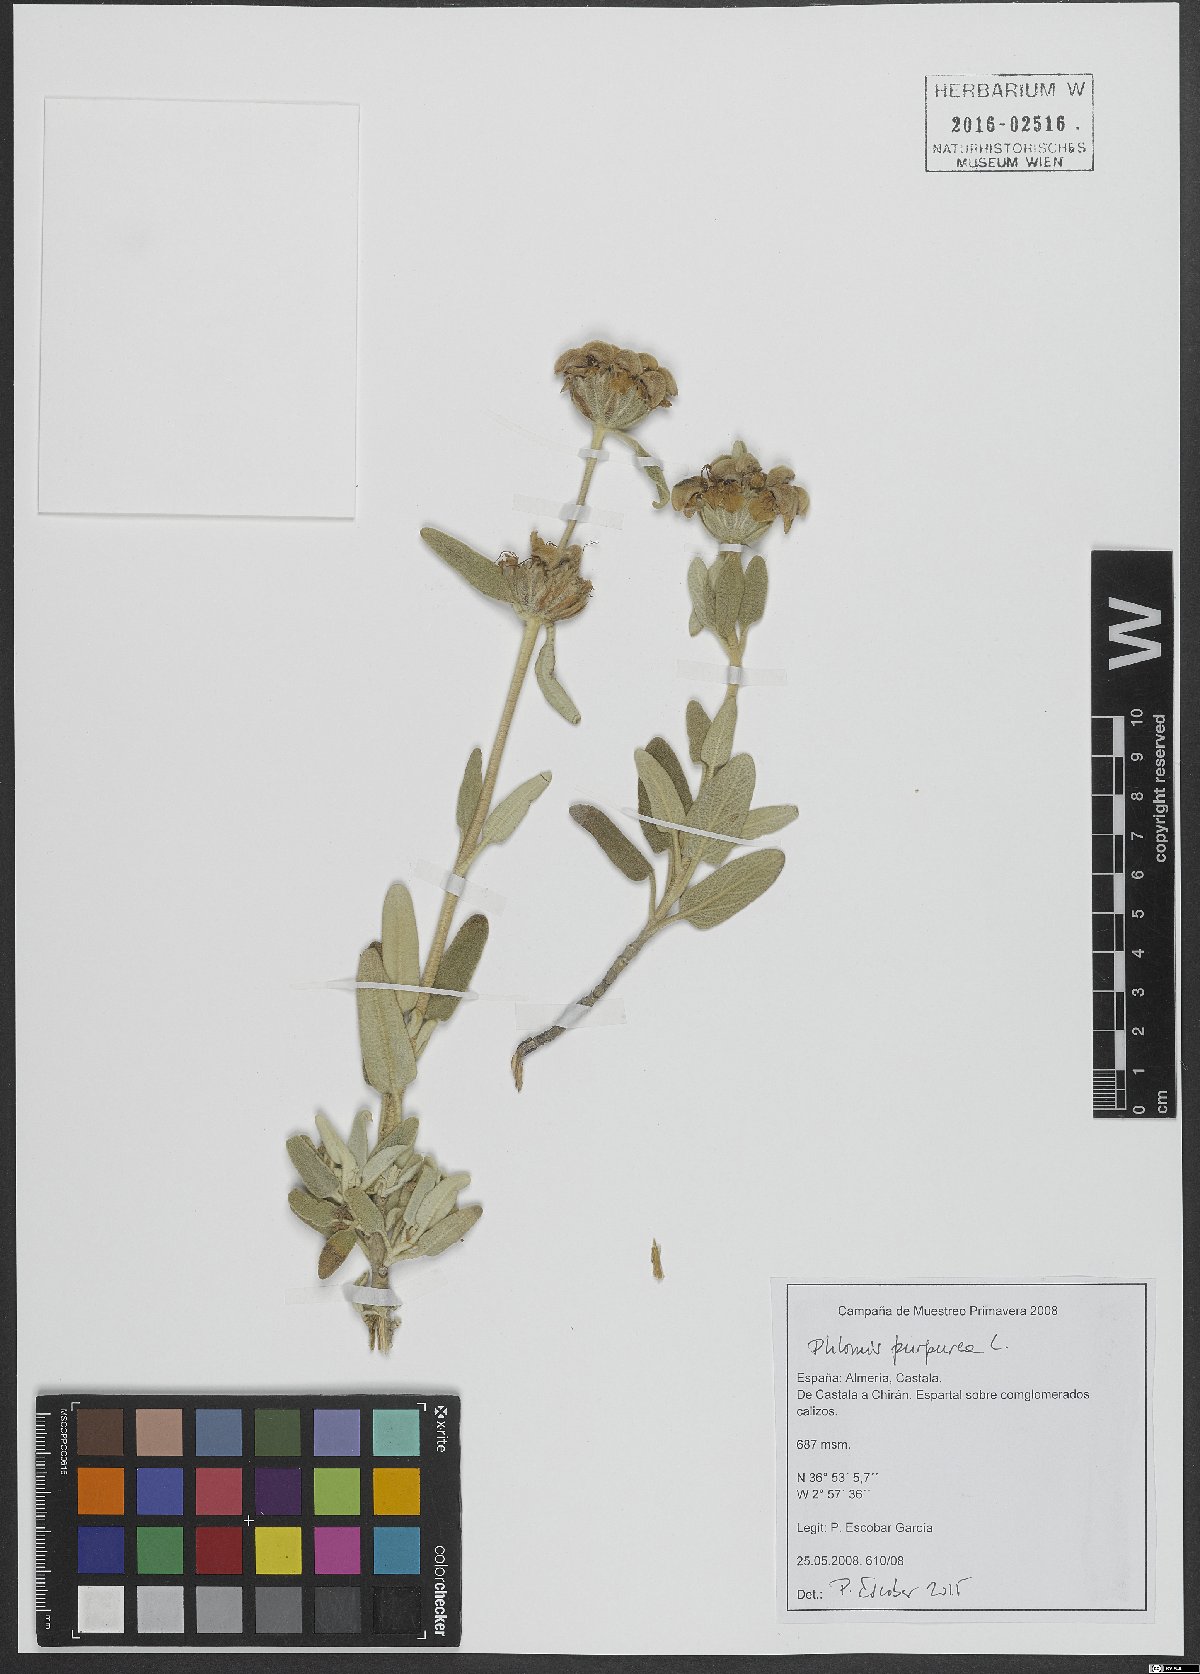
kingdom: Plantae
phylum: Tracheophyta
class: Magnoliopsida
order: Lamiales
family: Lamiaceae
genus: Phlomis
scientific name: Phlomis purpurea
